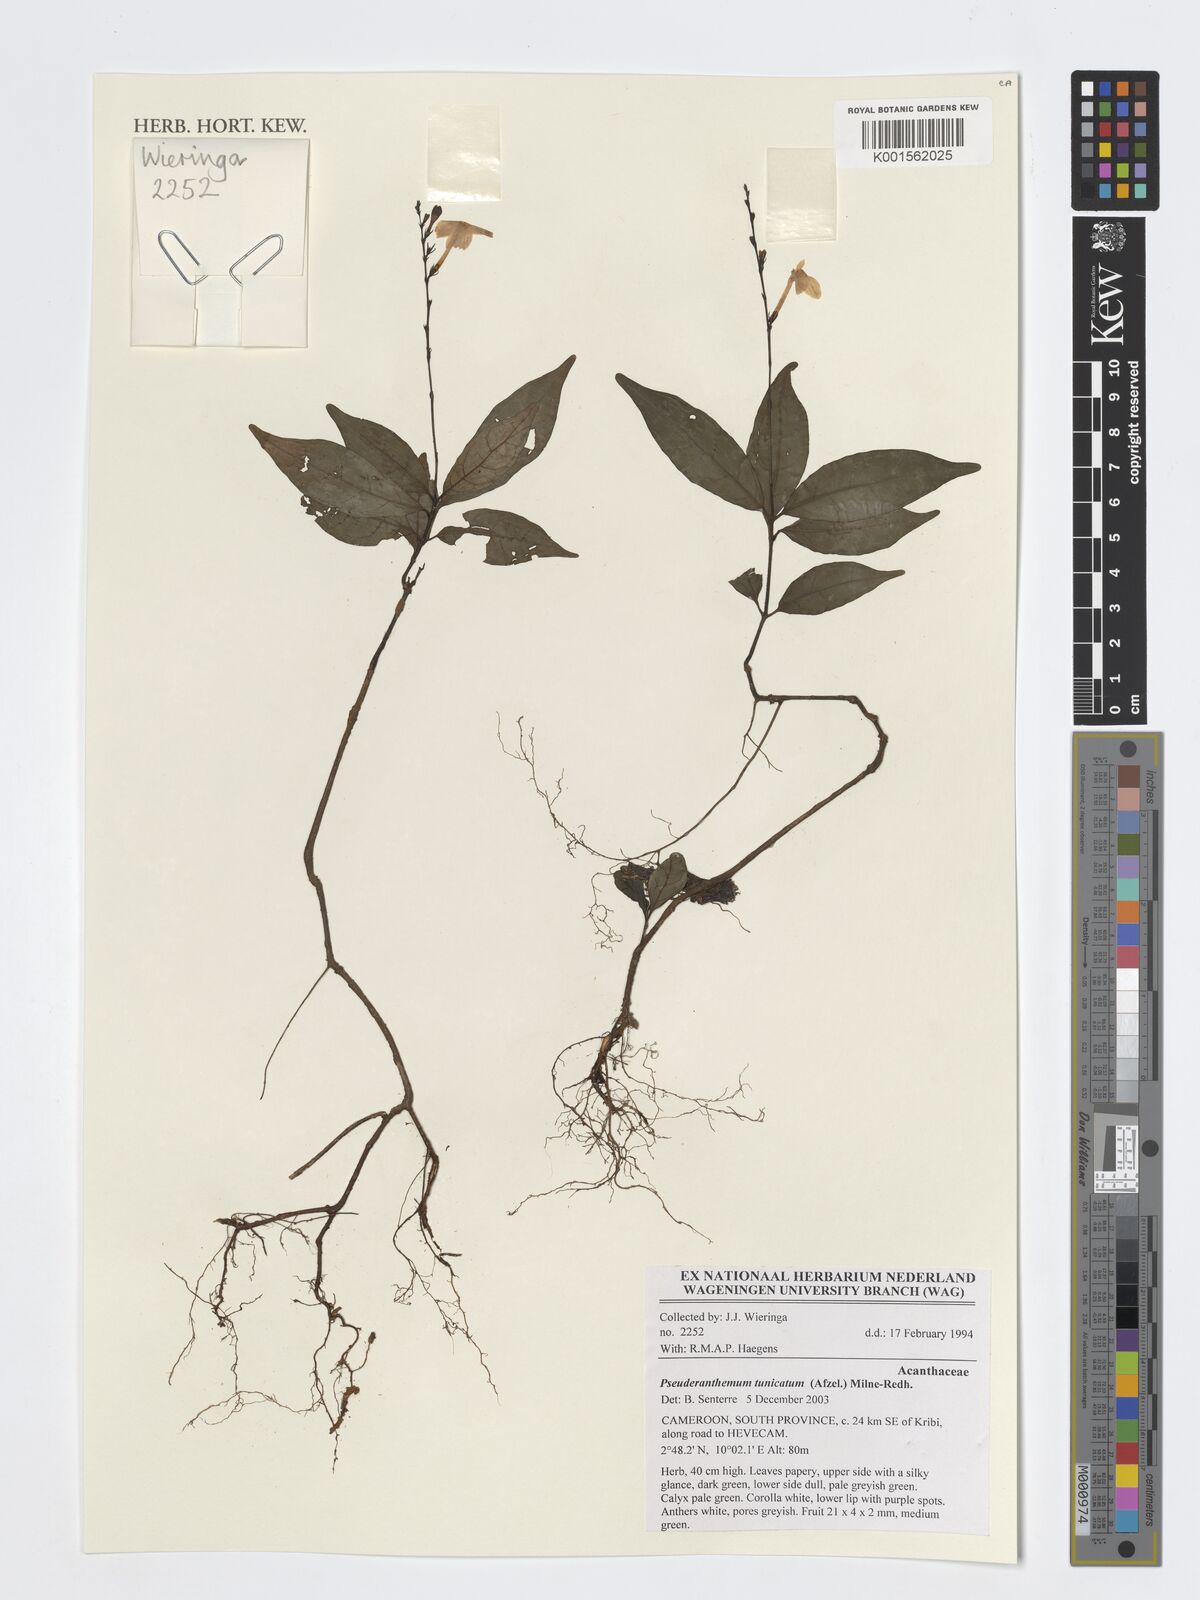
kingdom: Plantae
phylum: Tracheophyta
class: Magnoliopsida
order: Lamiales
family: Acanthaceae
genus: Pseuderanthemum
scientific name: Pseuderanthemum tunicatum
